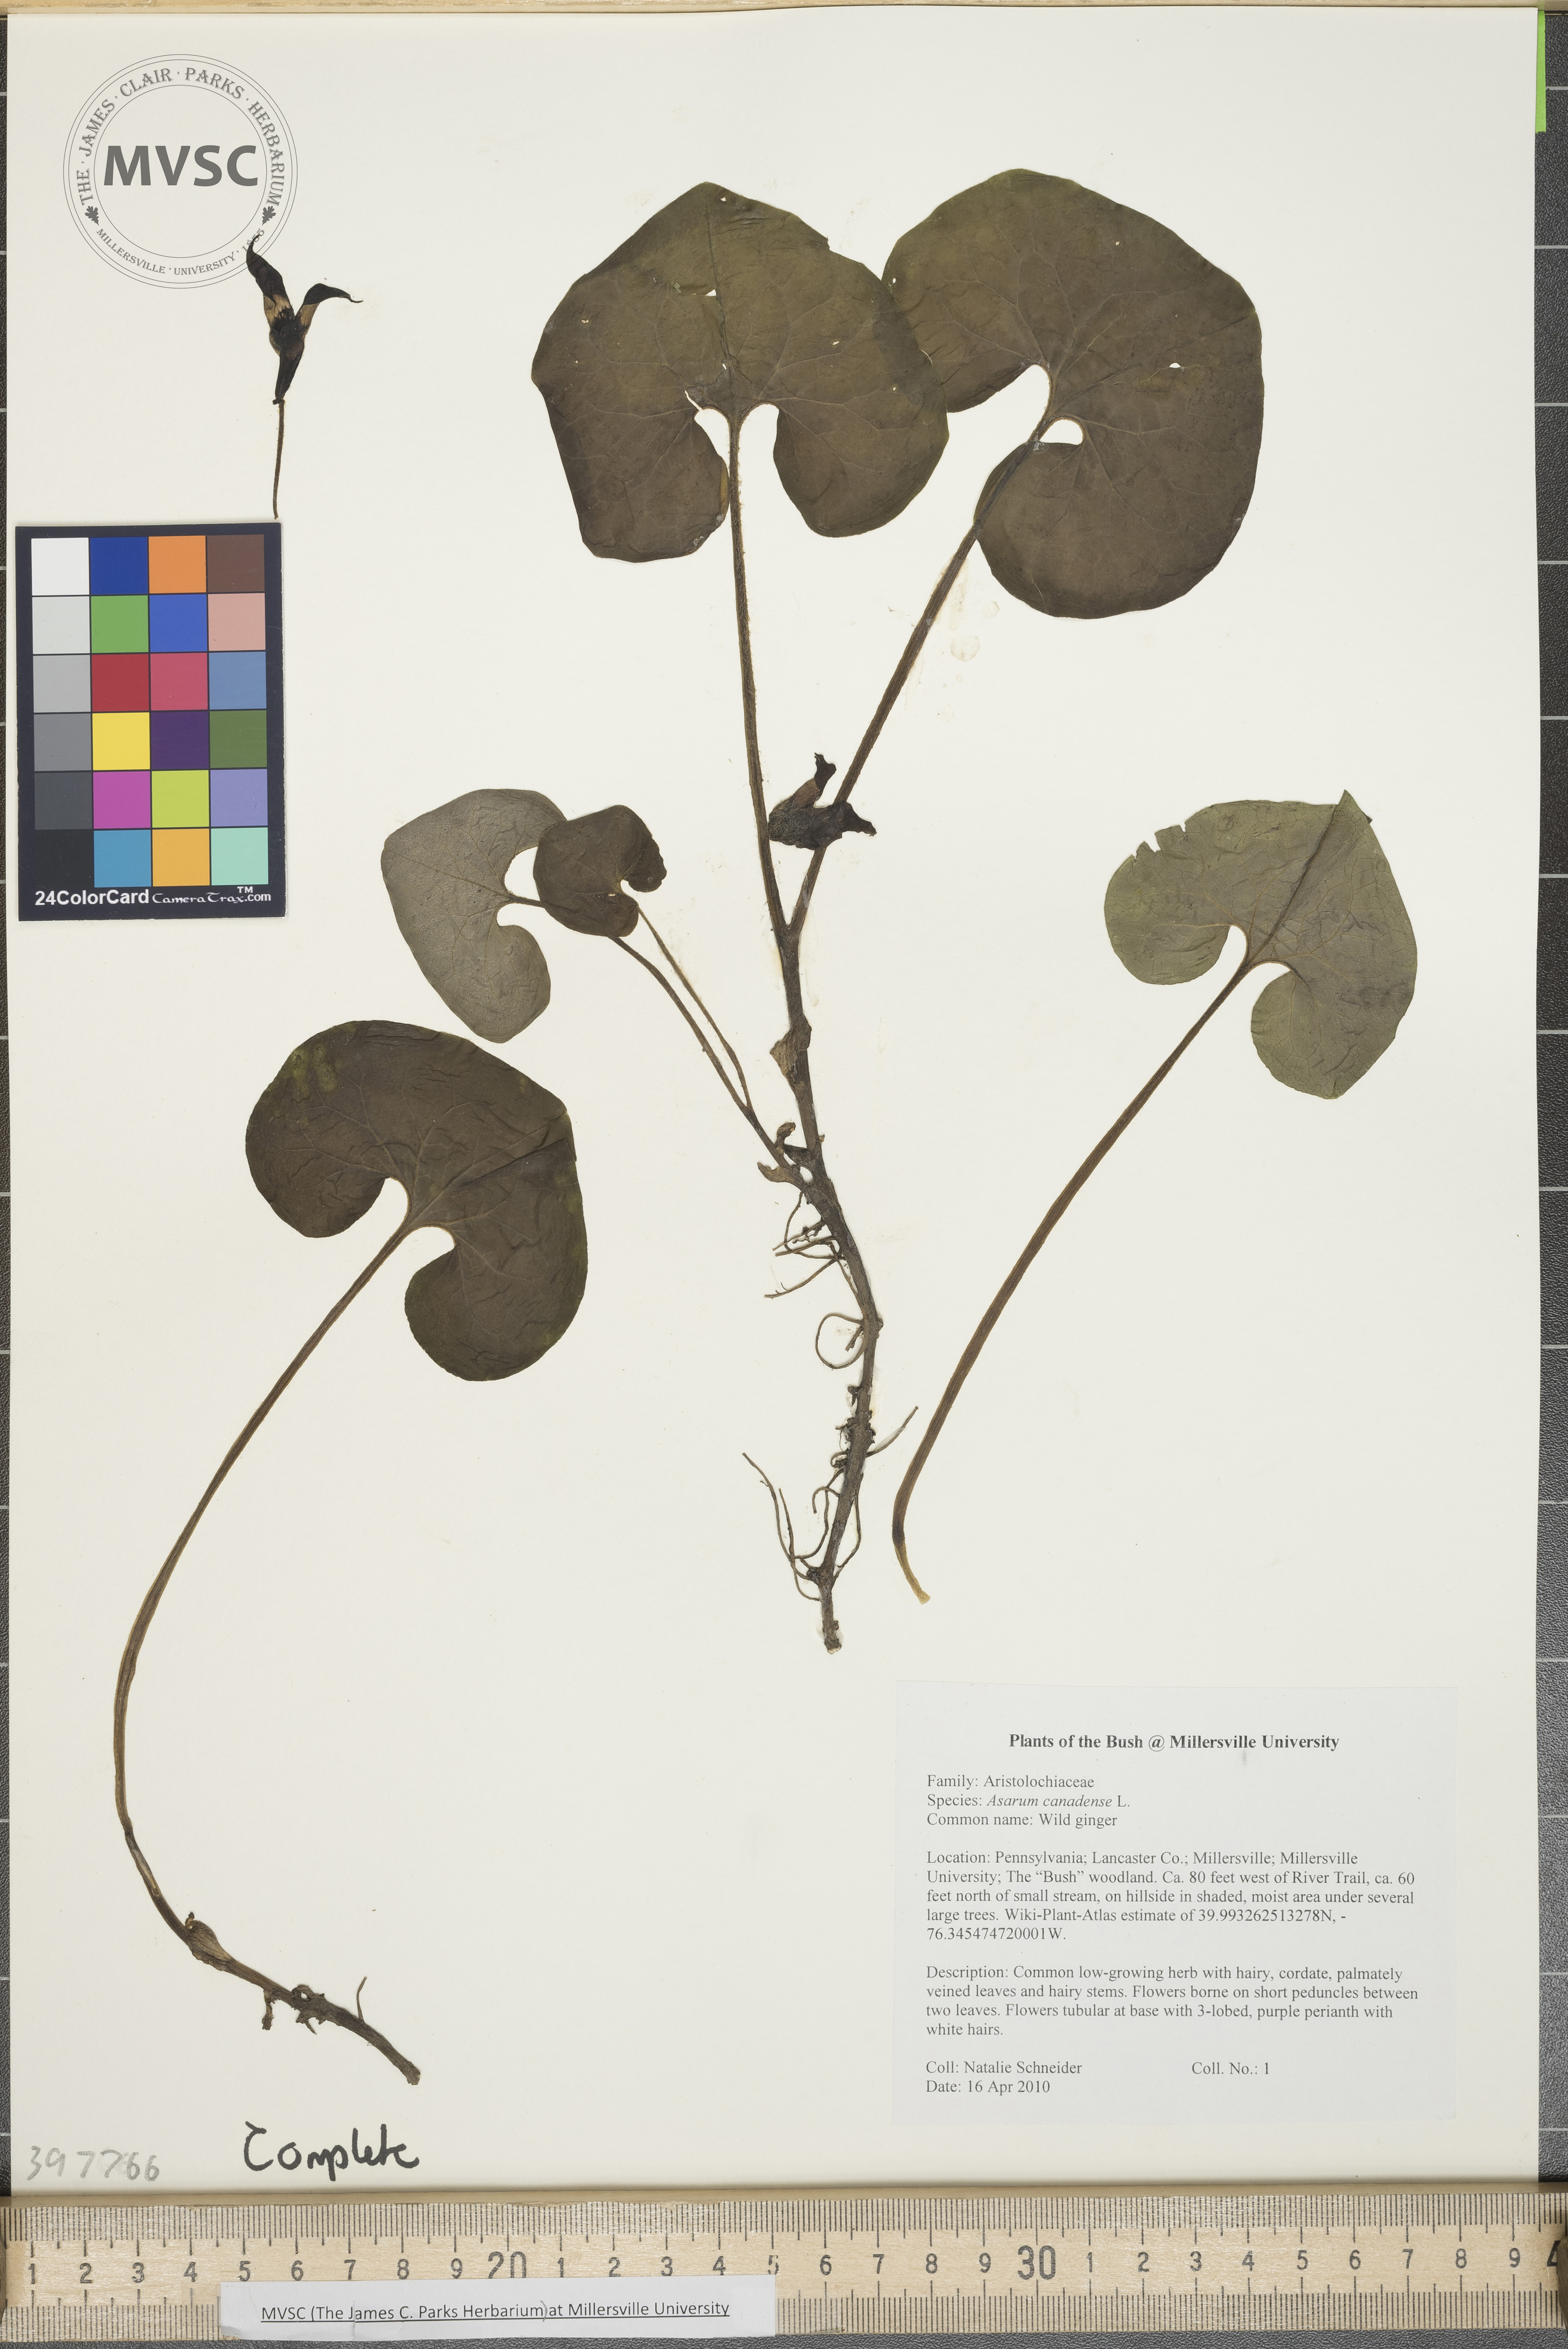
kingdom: Plantae
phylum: Tracheophyta
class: Magnoliopsida
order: Piperales
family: Aristolochiaceae
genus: Asarum
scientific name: Asarum canadense
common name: Wild ginger
